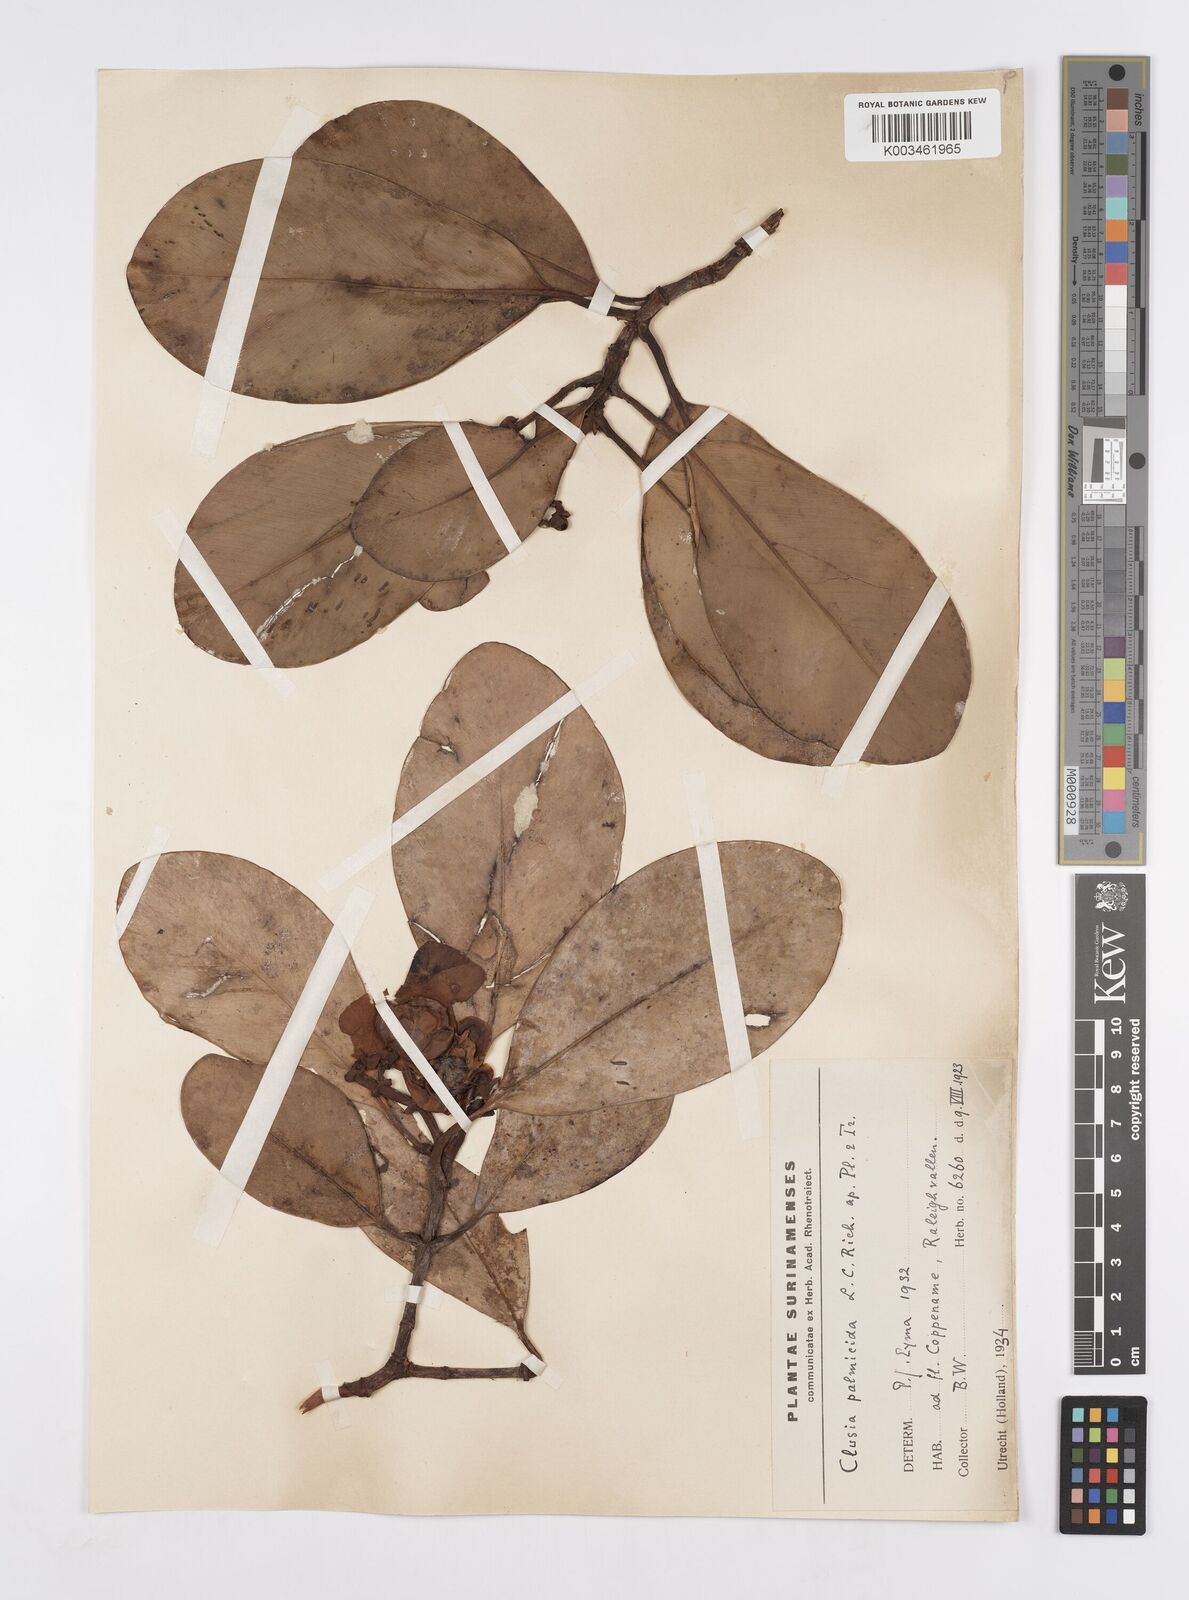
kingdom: Plantae
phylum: Tracheophyta
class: Magnoliopsida
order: Malpighiales
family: Clusiaceae
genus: Clusia
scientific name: Clusia palmicida
